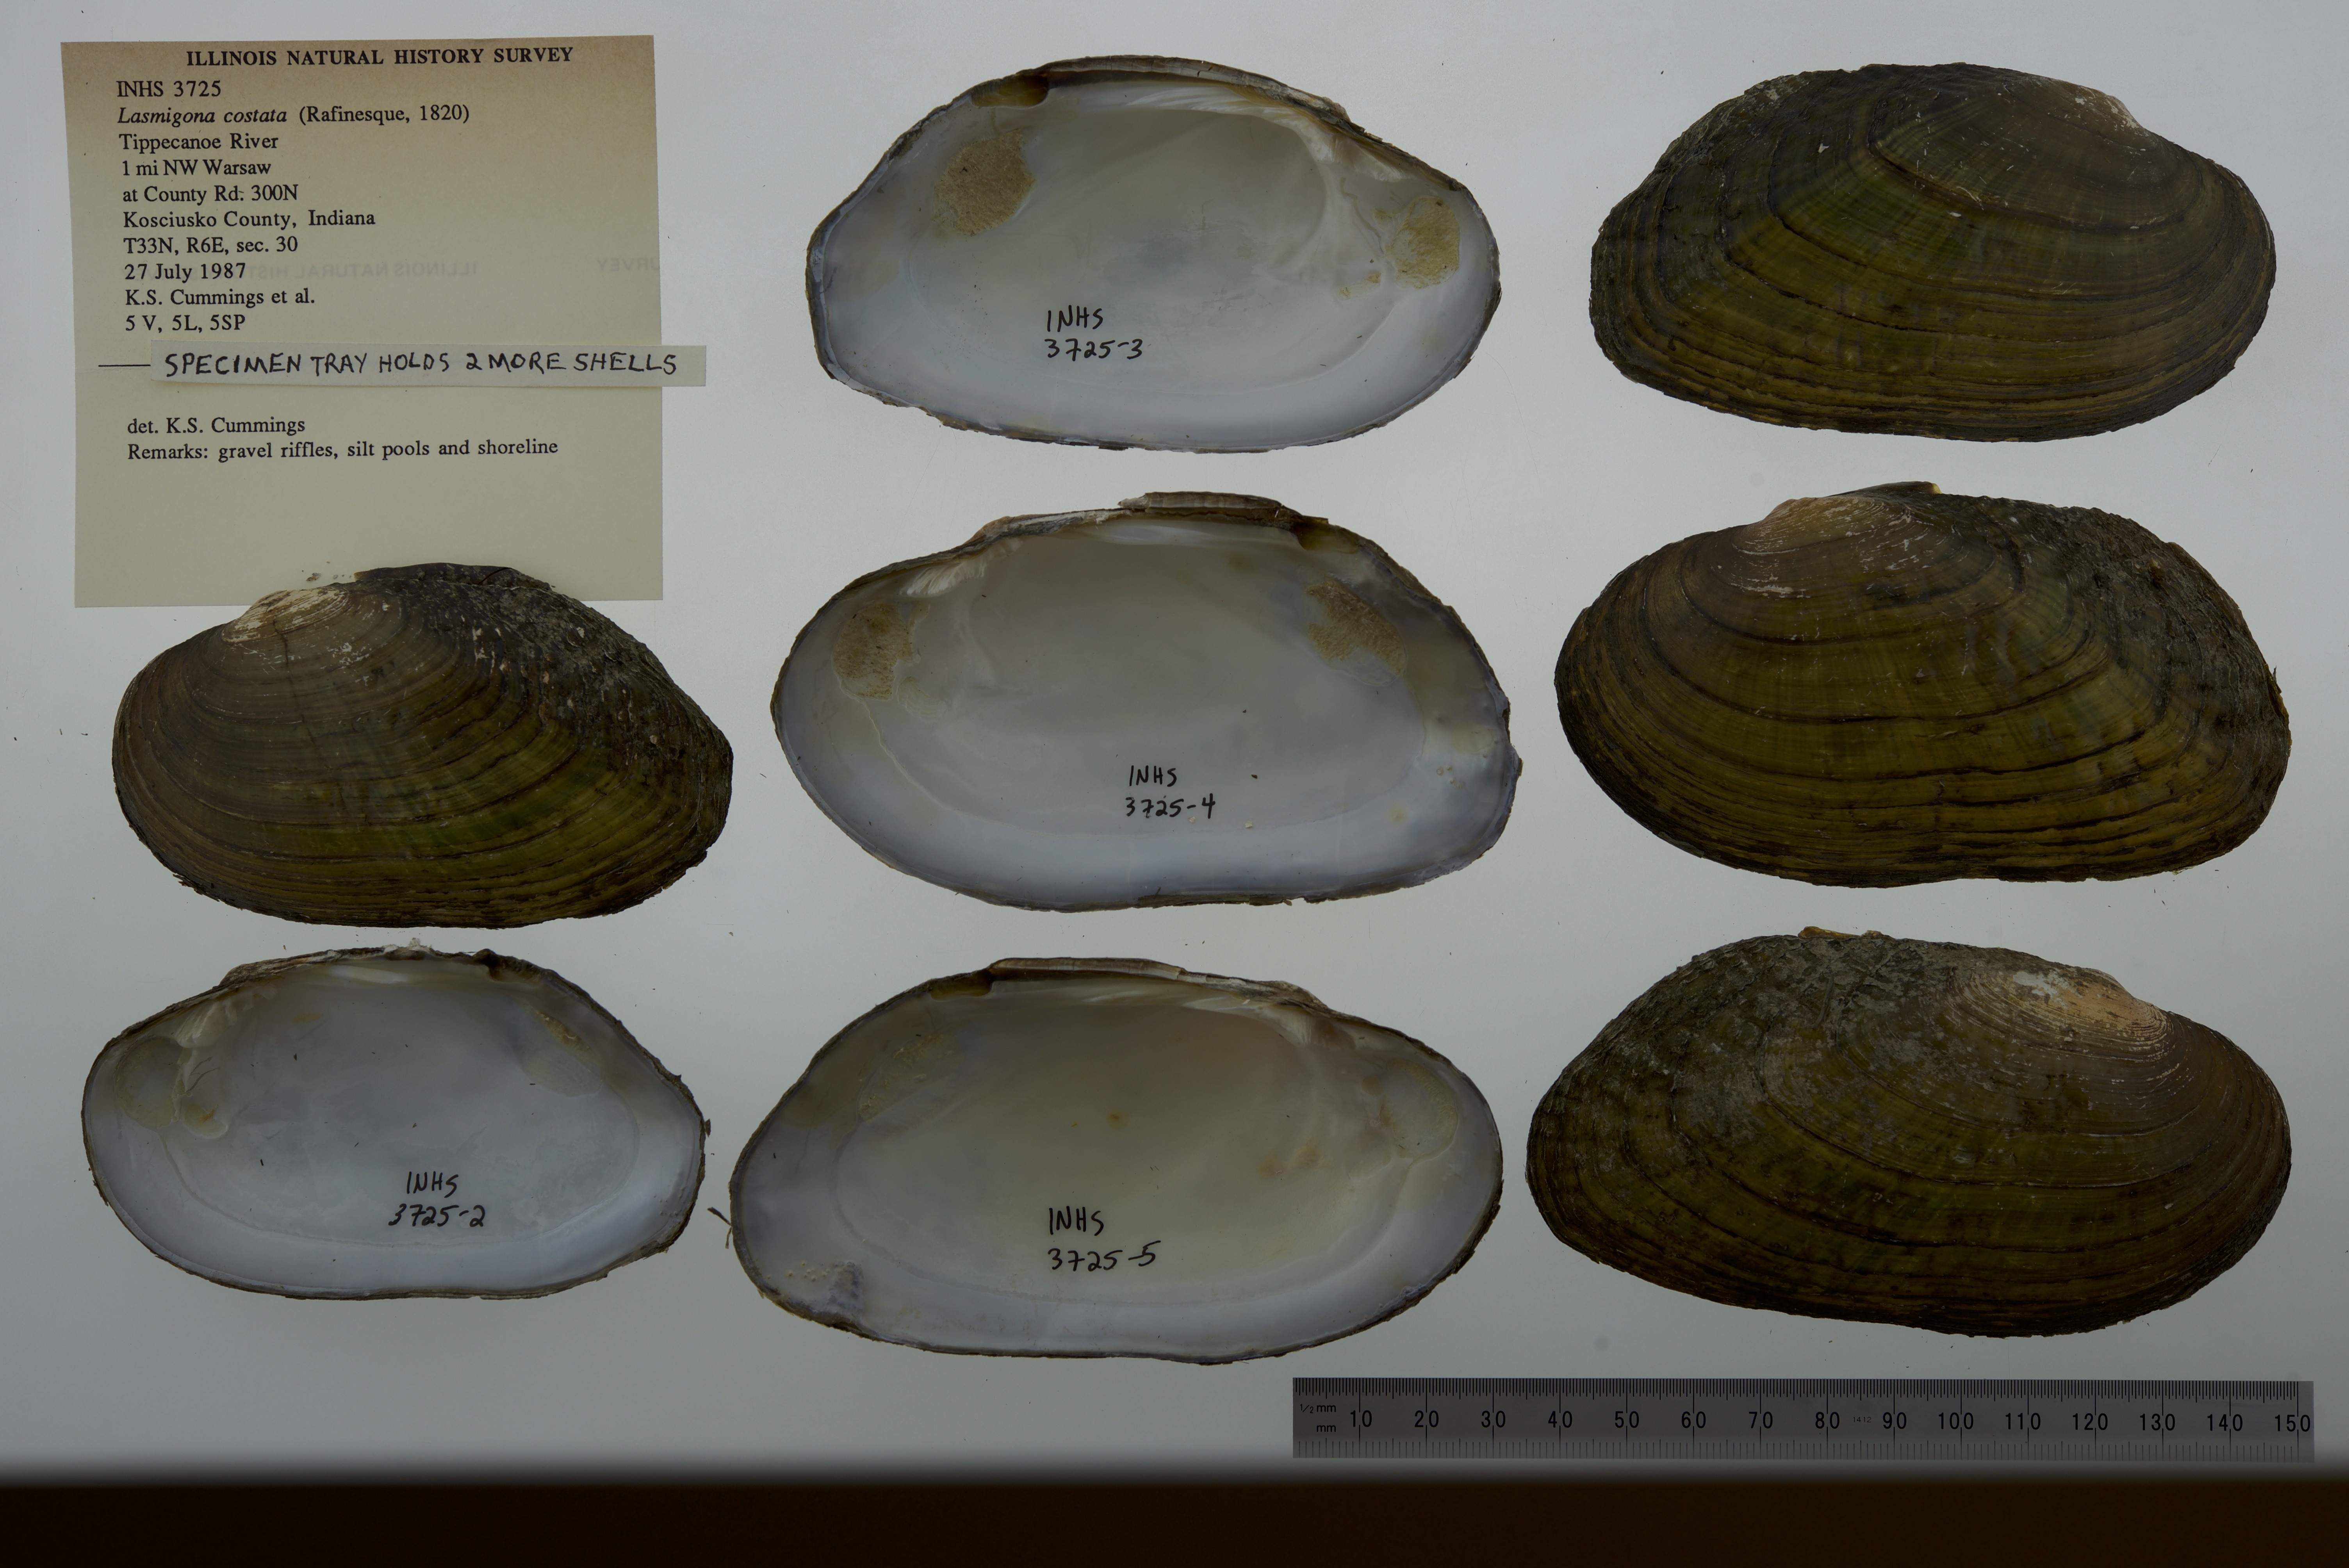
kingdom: Animalia
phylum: Mollusca
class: Bivalvia
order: Unionida
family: Unionidae
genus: Lasmigona
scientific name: Lasmigona costata
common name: Flutedshell
